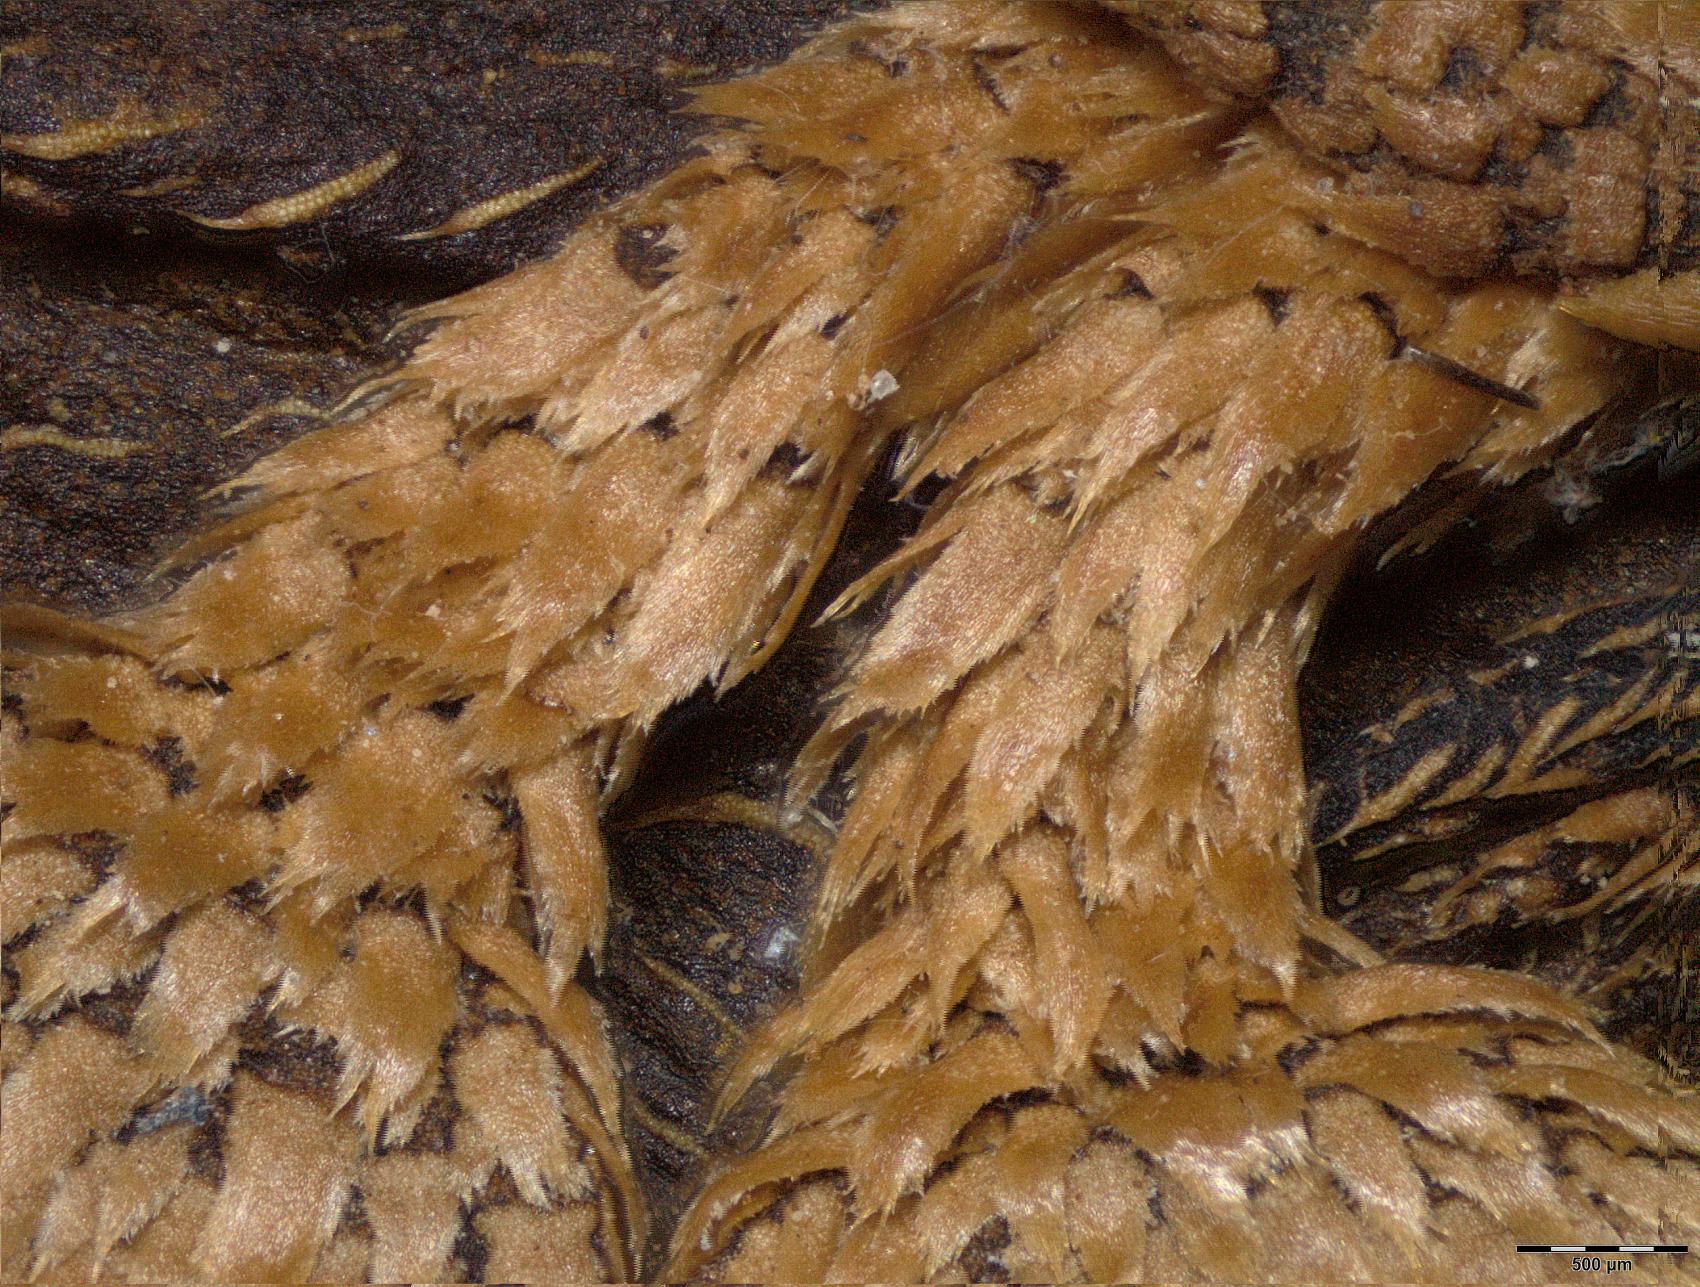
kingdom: Plantae
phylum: Tracheophyta
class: Magnoliopsida
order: Myrtales
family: Melastomataceae
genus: Miconia
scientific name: Miconia squamulosa
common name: Squamulose maya
